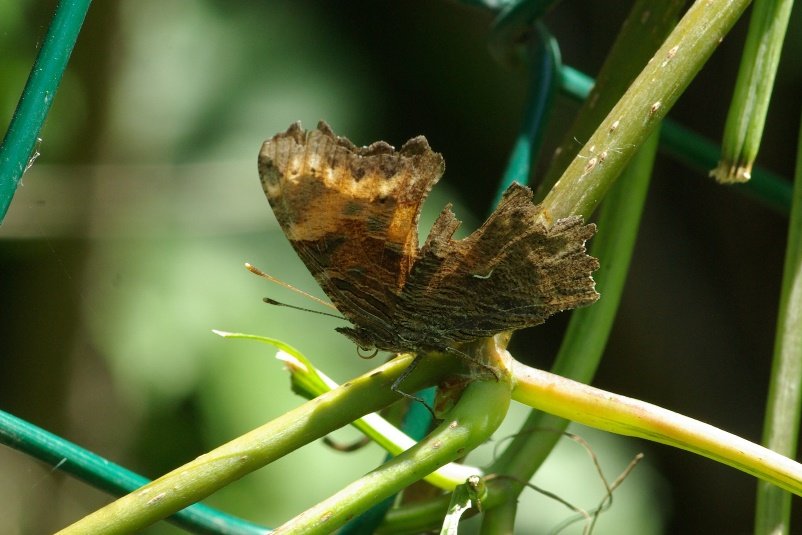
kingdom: Animalia
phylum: Arthropoda
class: Insecta
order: Lepidoptera
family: Nymphalidae
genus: Polygonia
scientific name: Polygonia progne
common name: Gray Comma
